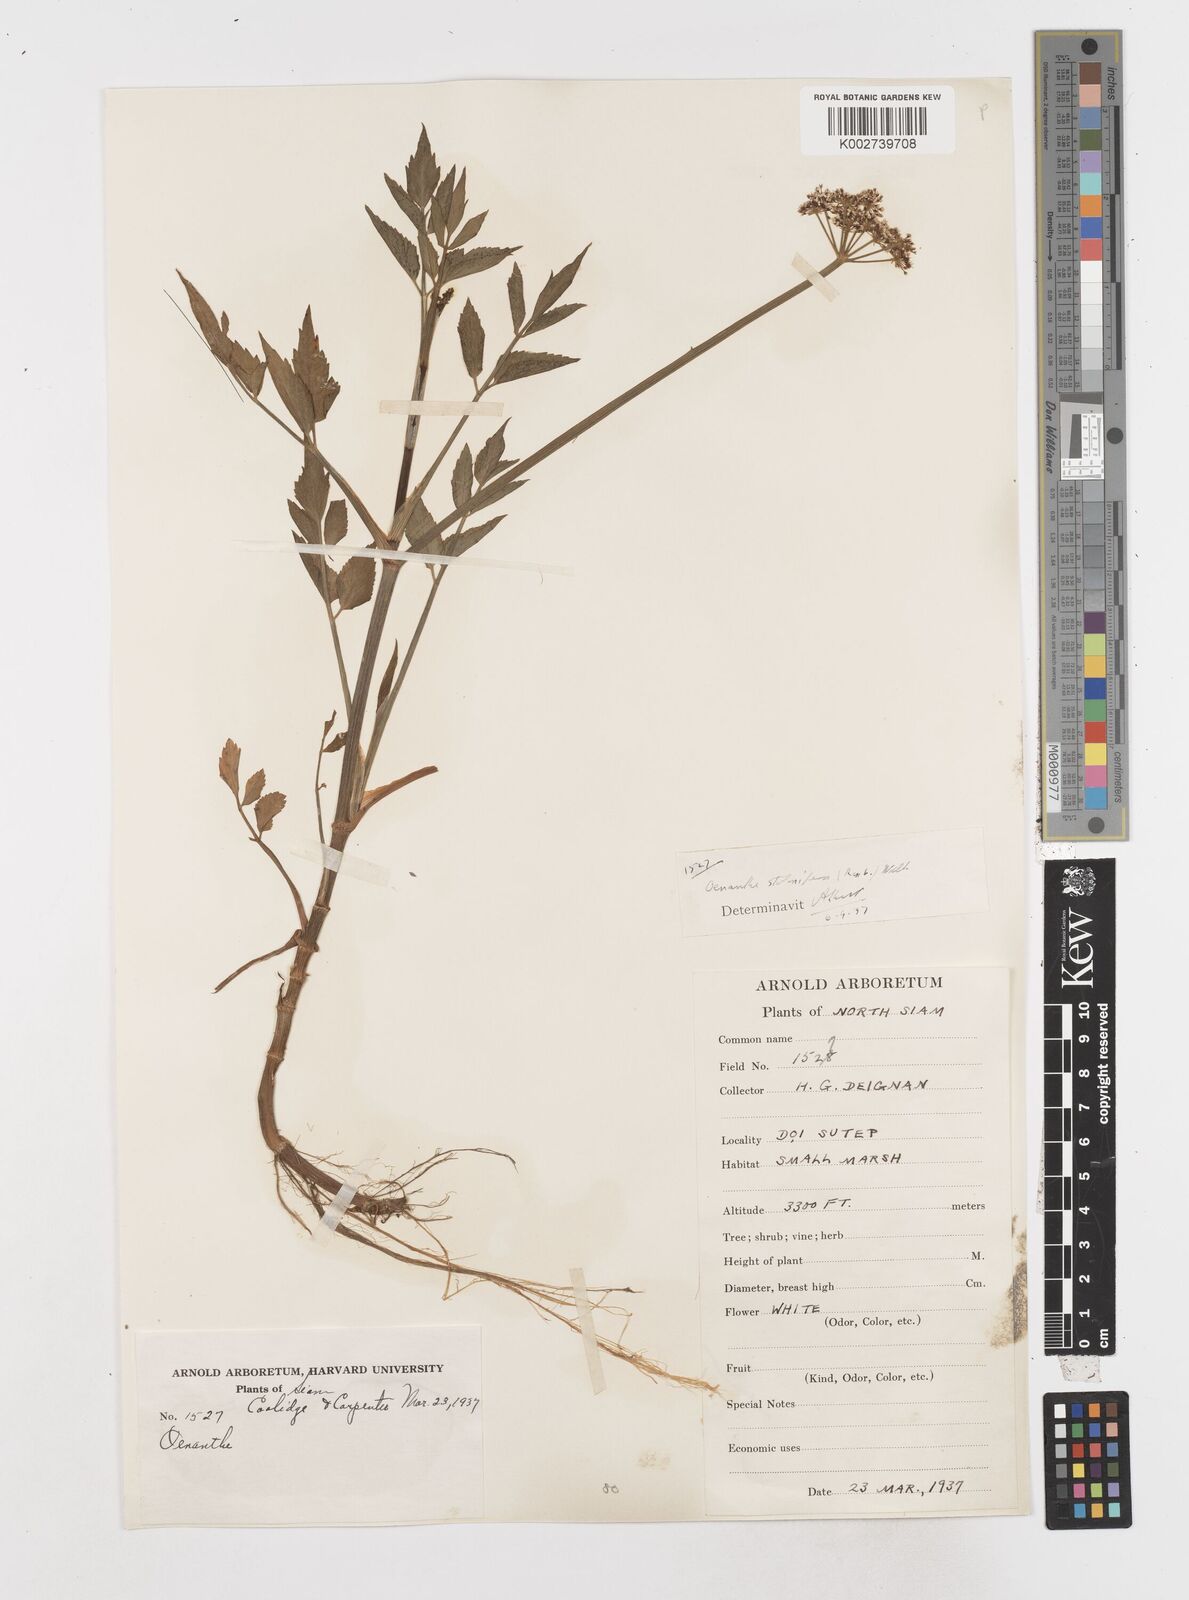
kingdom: Plantae
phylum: Tracheophyta
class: Magnoliopsida
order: Apiales
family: Apiaceae
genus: Oenanthe
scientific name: Oenanthe javanica
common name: Java water-dropwort
